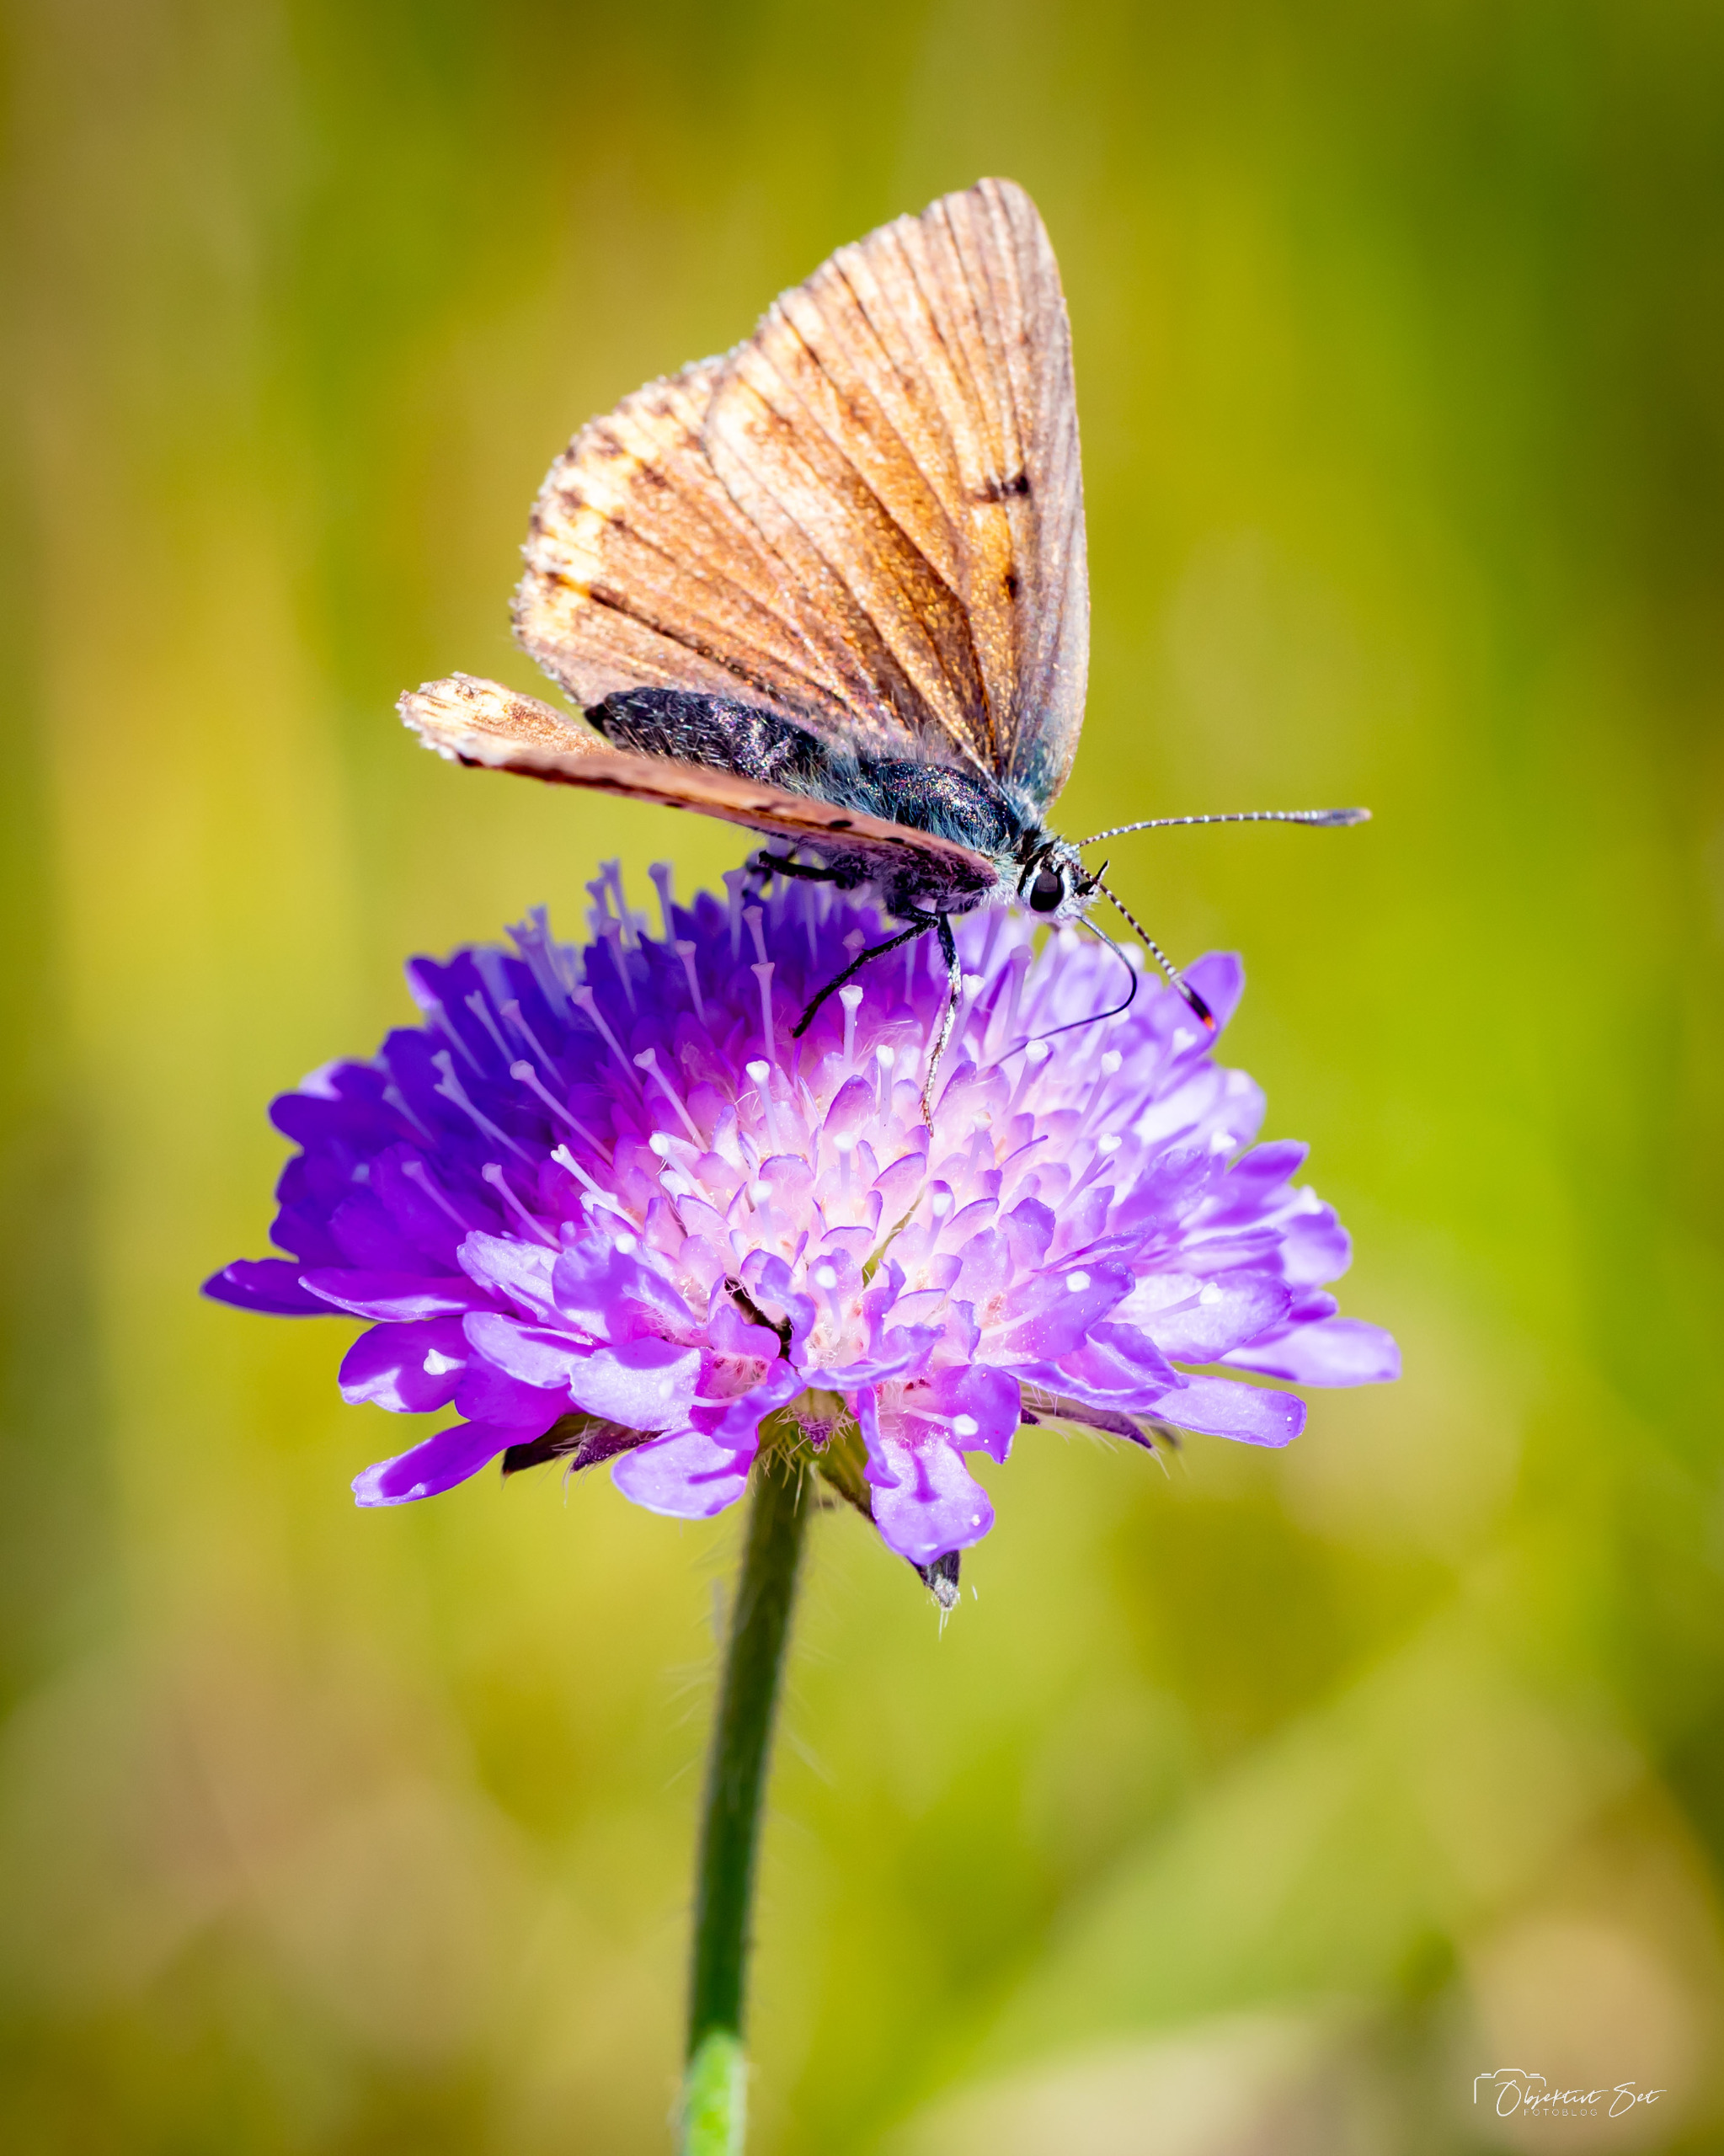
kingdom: Animalia
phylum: Arthropoda
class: Insecta
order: Lepidoptera
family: Lycaenidae
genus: Palaeochrysophanus
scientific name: Palaeochrysophanus hippothoe
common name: Violetrandet ildfugl
